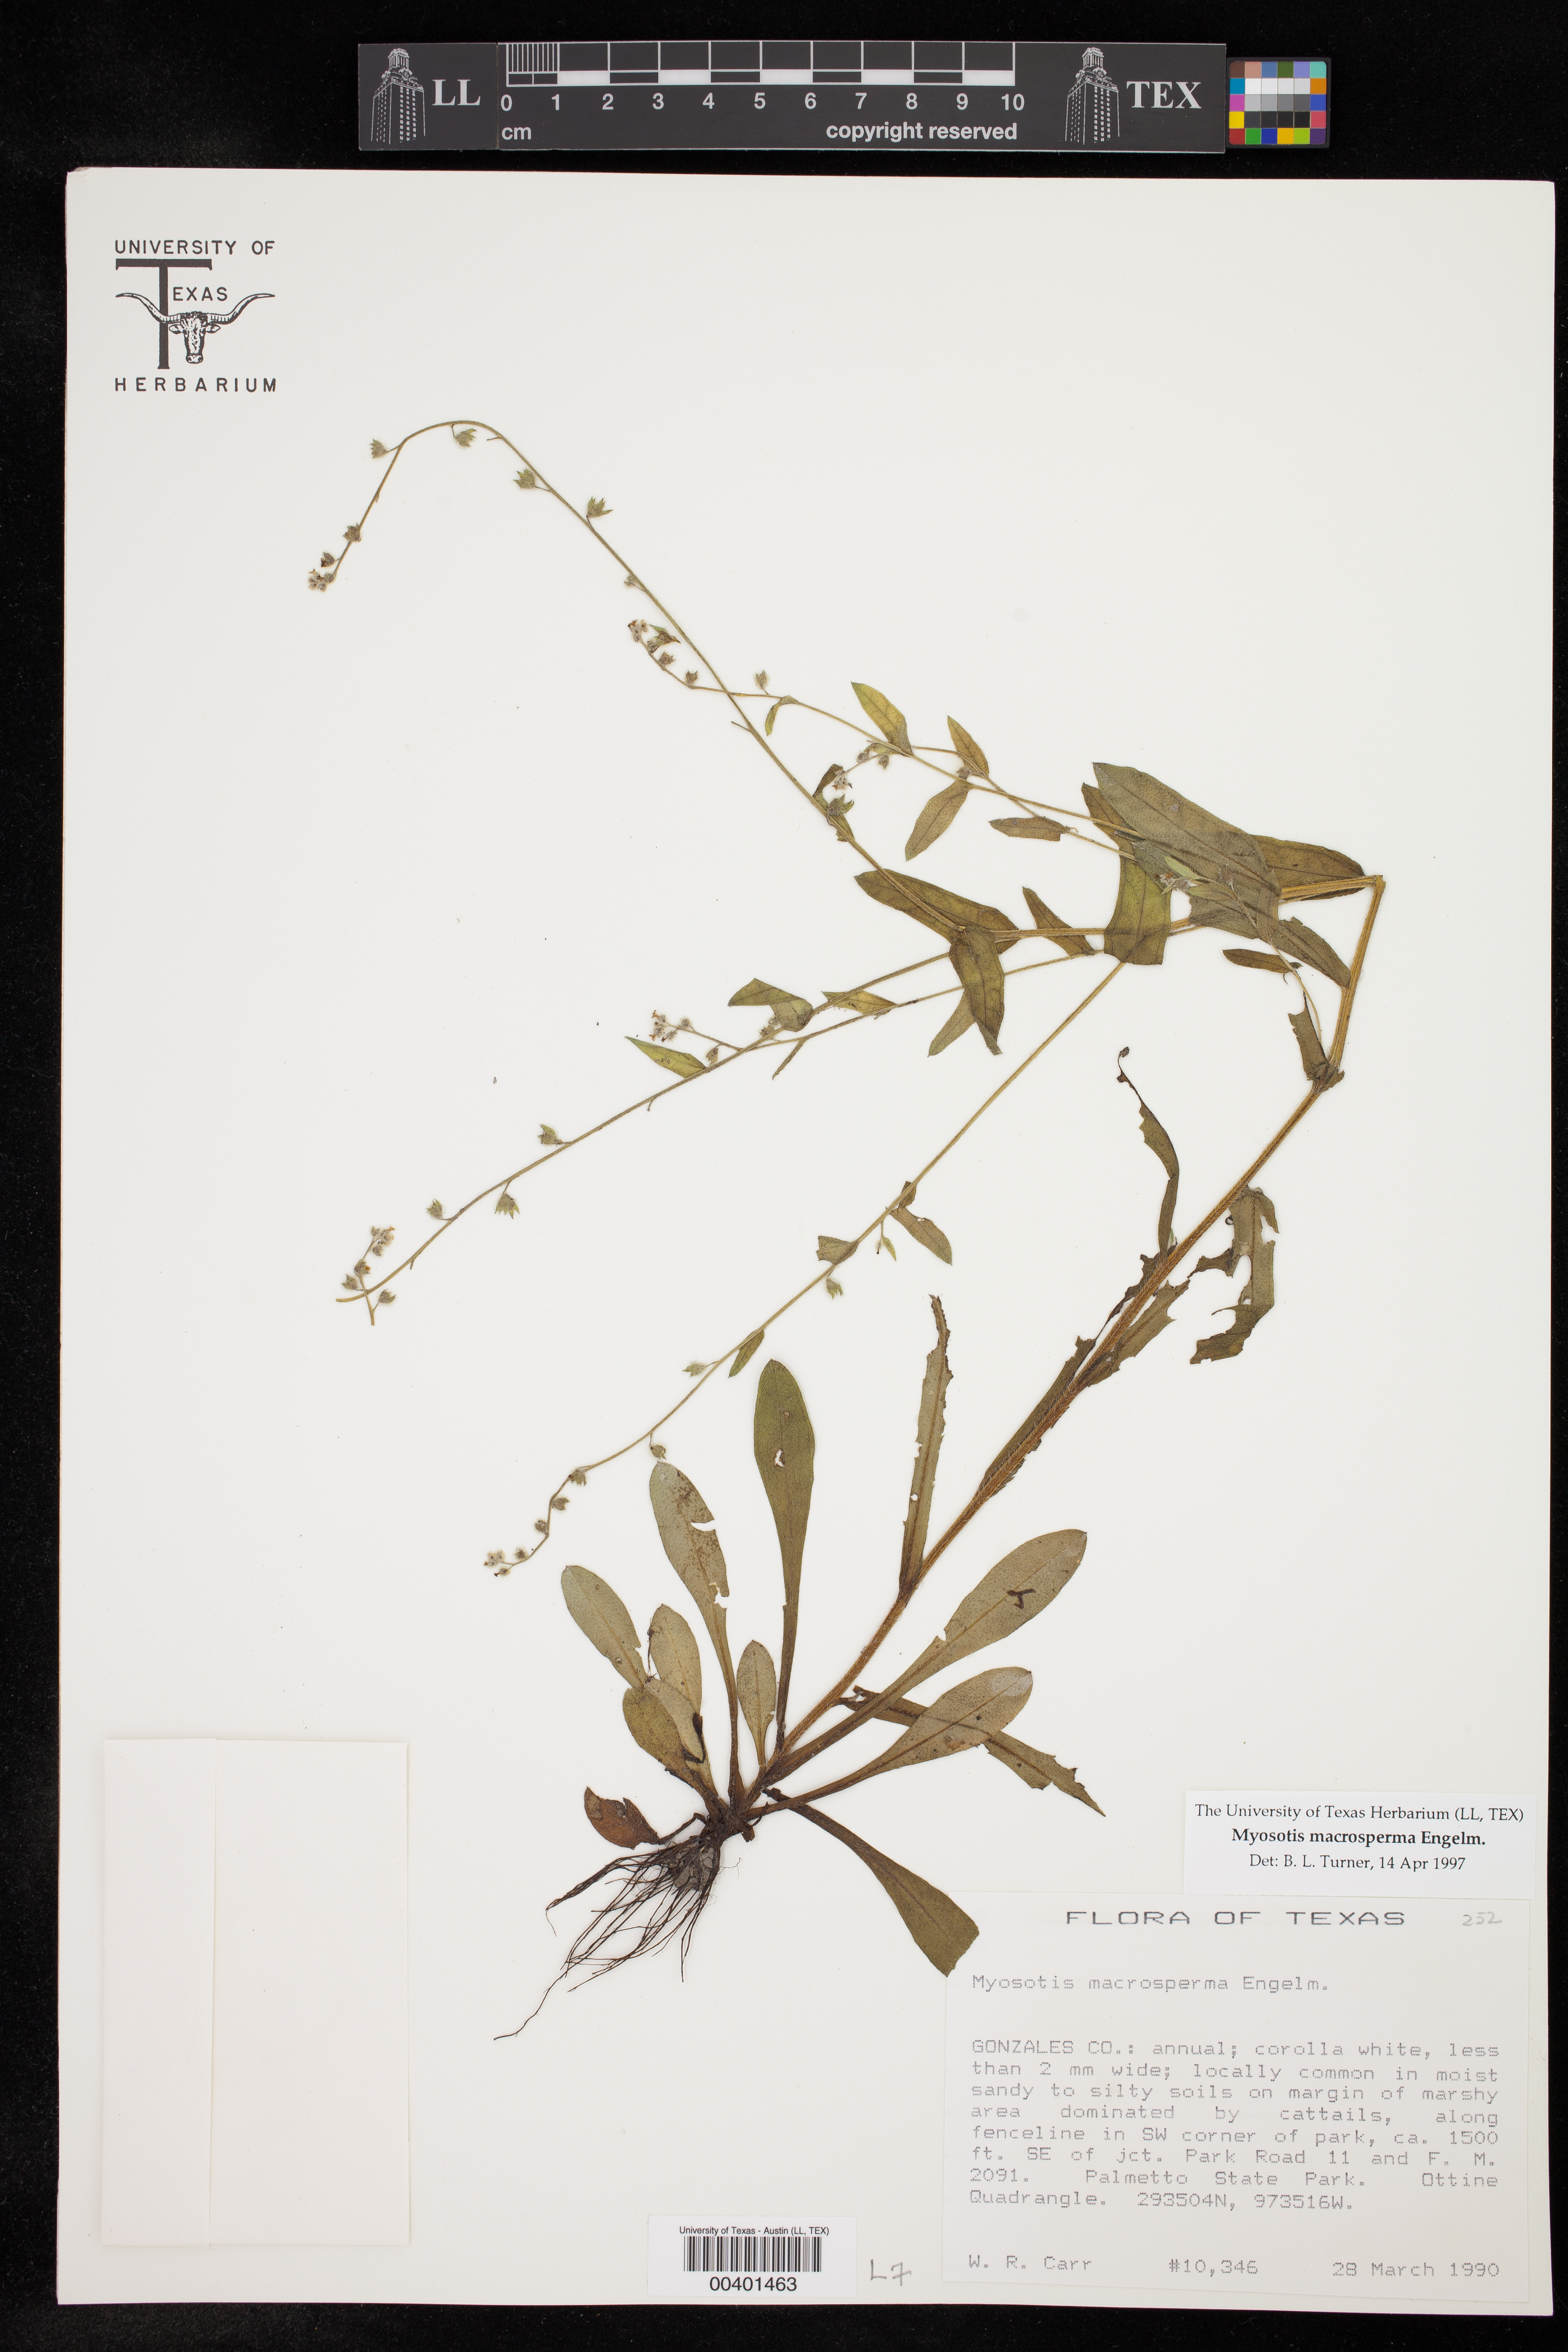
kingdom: Plantae
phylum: Tracheophyta
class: Magnoliopsida
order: Boraginales
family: Boraginaceae
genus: Myosotis
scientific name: Myosotis macrosperma
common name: Large-seed forget-me-not
